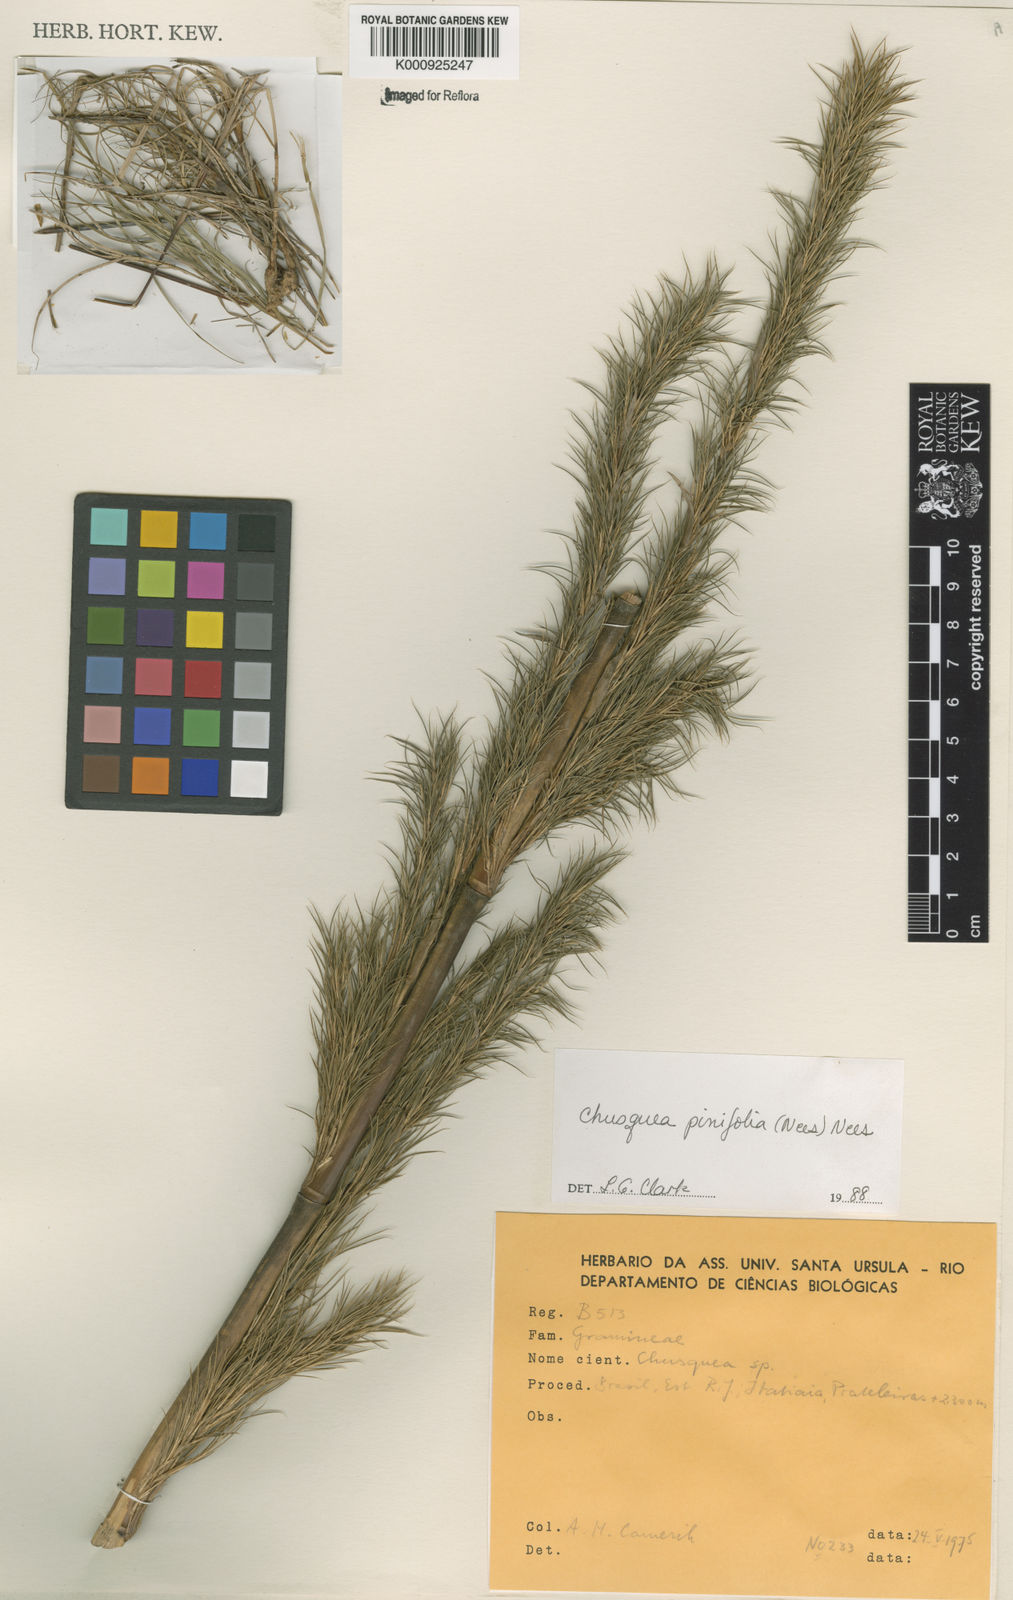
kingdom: Plantae
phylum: Tracheophyta
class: Liliopsida
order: Poales
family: Poaceae
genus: Chusquea
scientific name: Chusquea pinifolia
